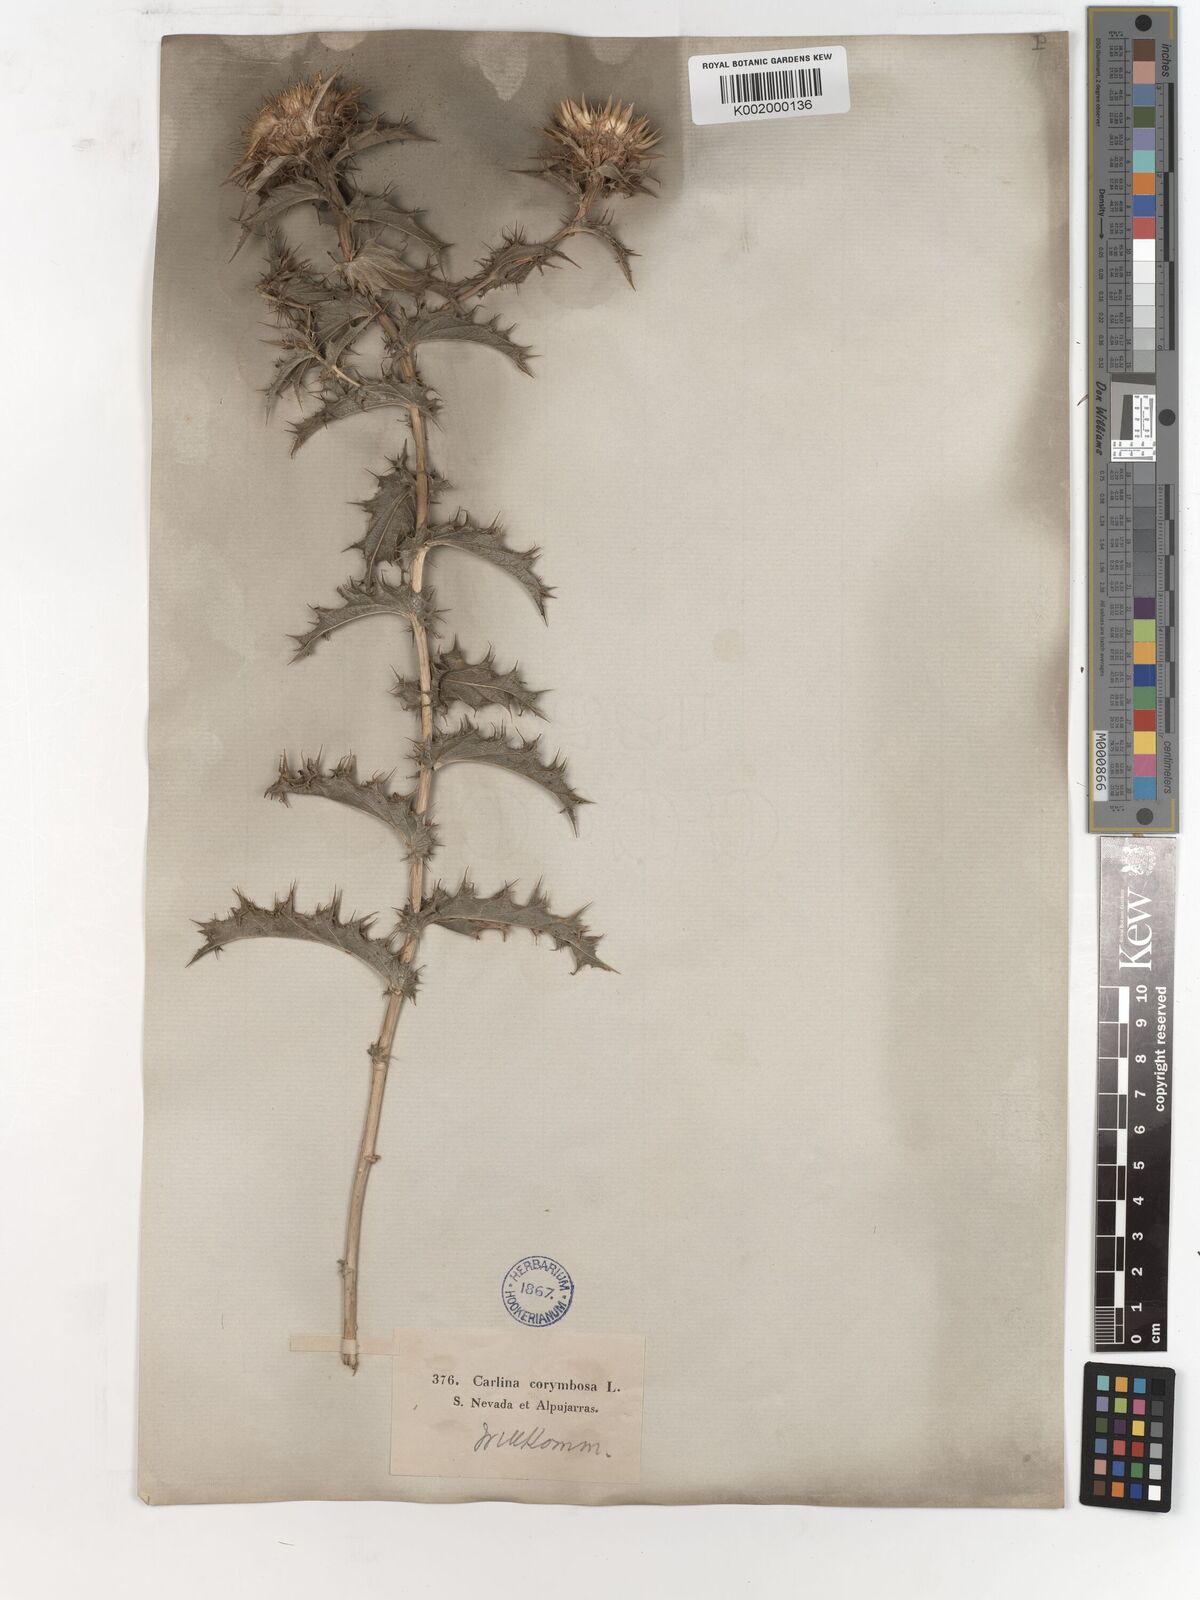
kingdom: Plantae
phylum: Tracheophyta
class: Magnoliopsida
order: Asterales
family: Asteraceae
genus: Carlina
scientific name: Carlina corymbosa
